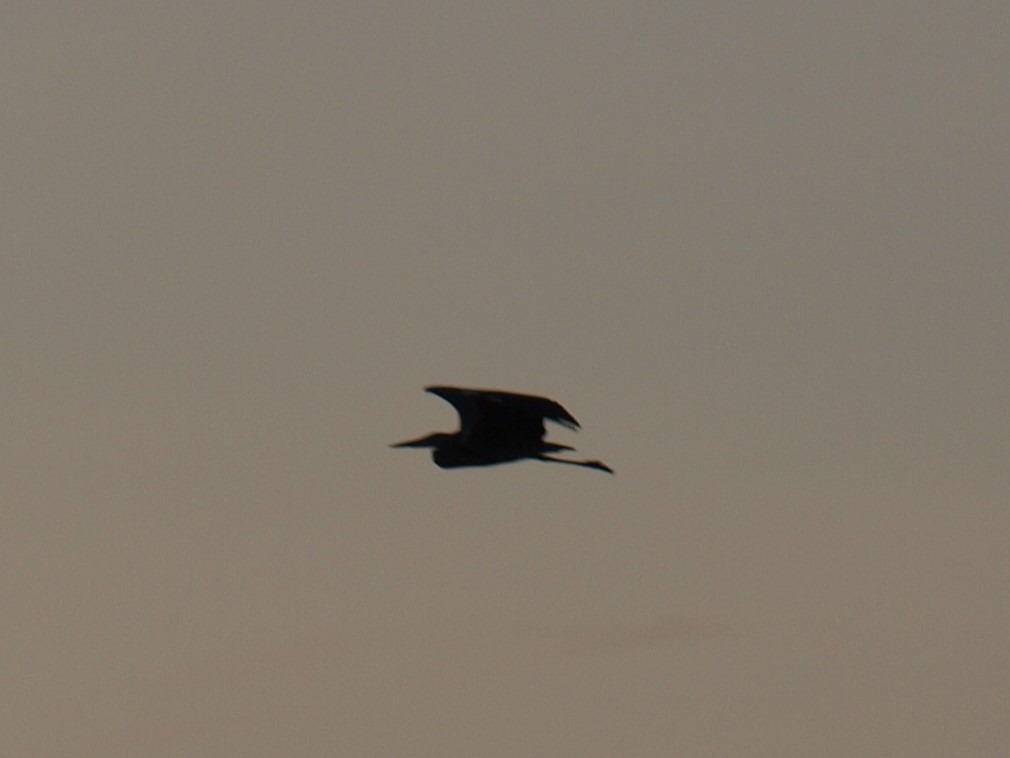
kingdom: Animalia
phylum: Chordata
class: Aves
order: Pelecaniformes
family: Ardeidae
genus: Ardea
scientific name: Ardea cinerea
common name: Fiskehejre
